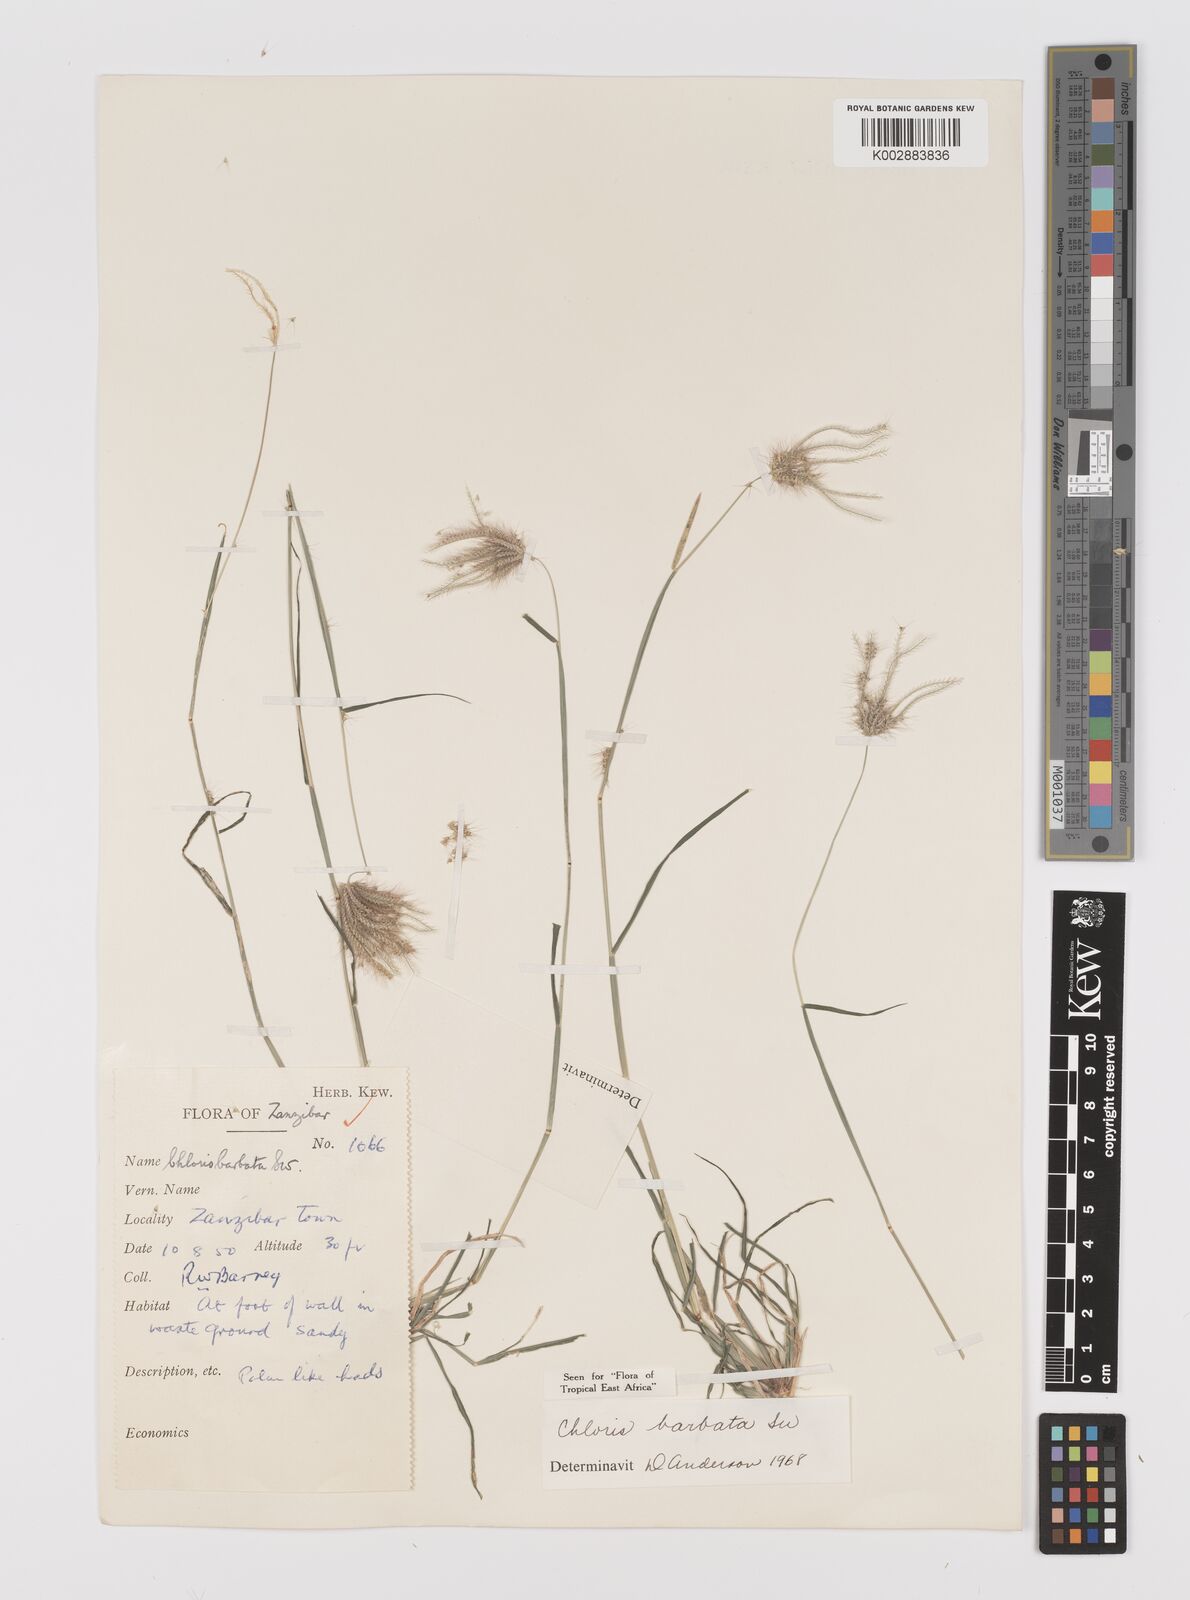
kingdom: Plantae
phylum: Tracheophyta
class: Liliopsida
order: Poales
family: Poaceae
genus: Chloris
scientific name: Chloris barbata
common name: Swollen fingergrass
